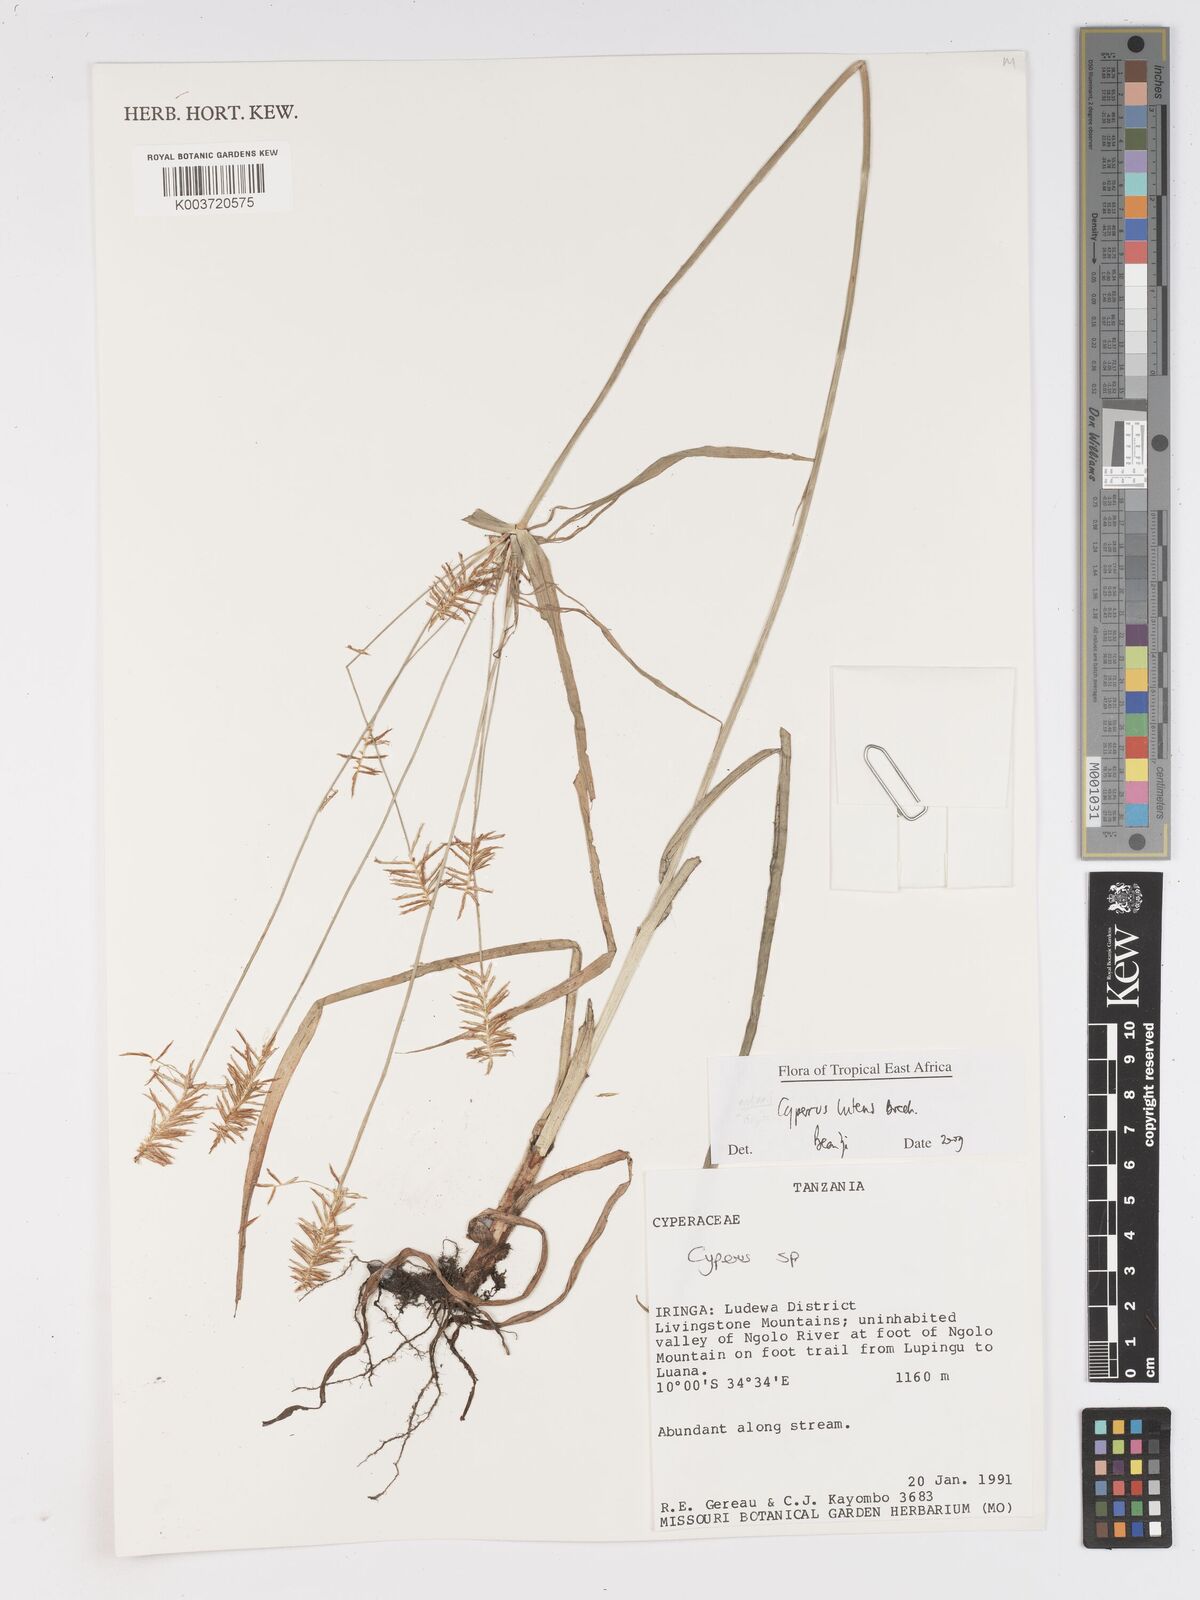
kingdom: Plantae
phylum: Tracheophyta
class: Liliopsida
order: Poales
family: Cyperaceae
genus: Cyperus
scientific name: Cyperus luteus
